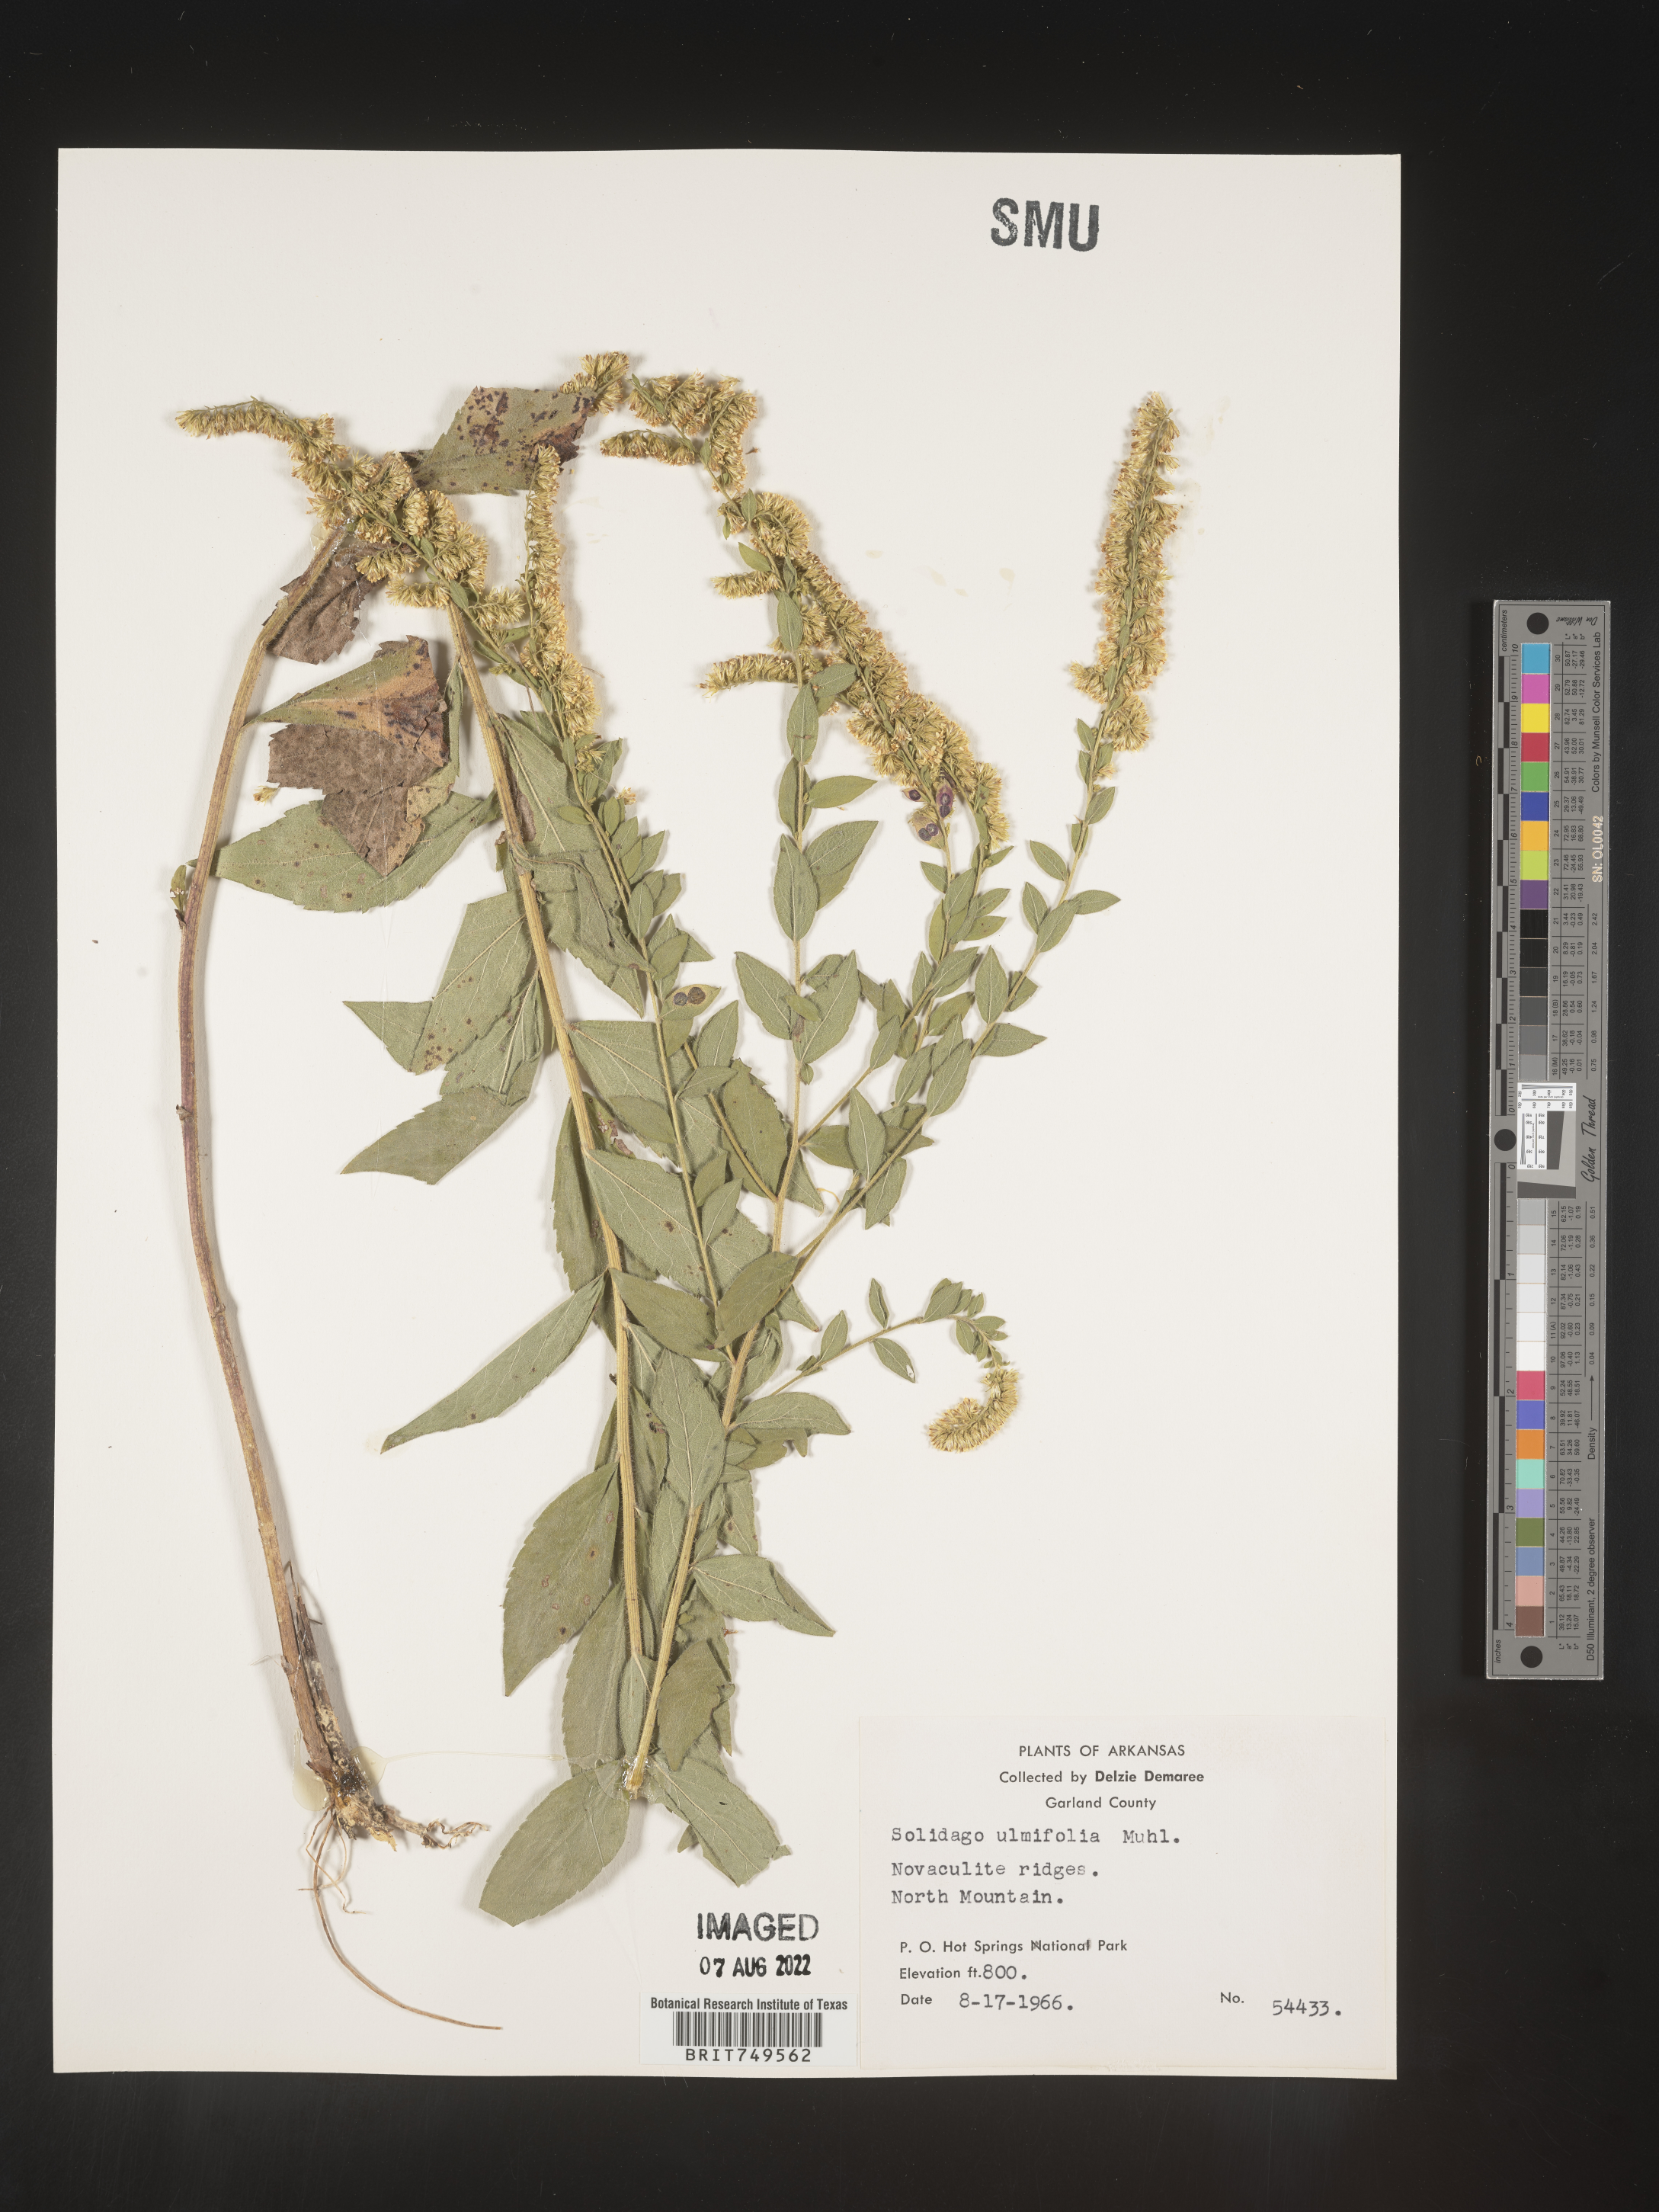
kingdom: Plantae
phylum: Tracheophyta
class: Magnoliopsida
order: Asterales
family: Asteraceae
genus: Solidago
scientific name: Solidago ulmifolia
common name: Elm-leaf goldenrod
